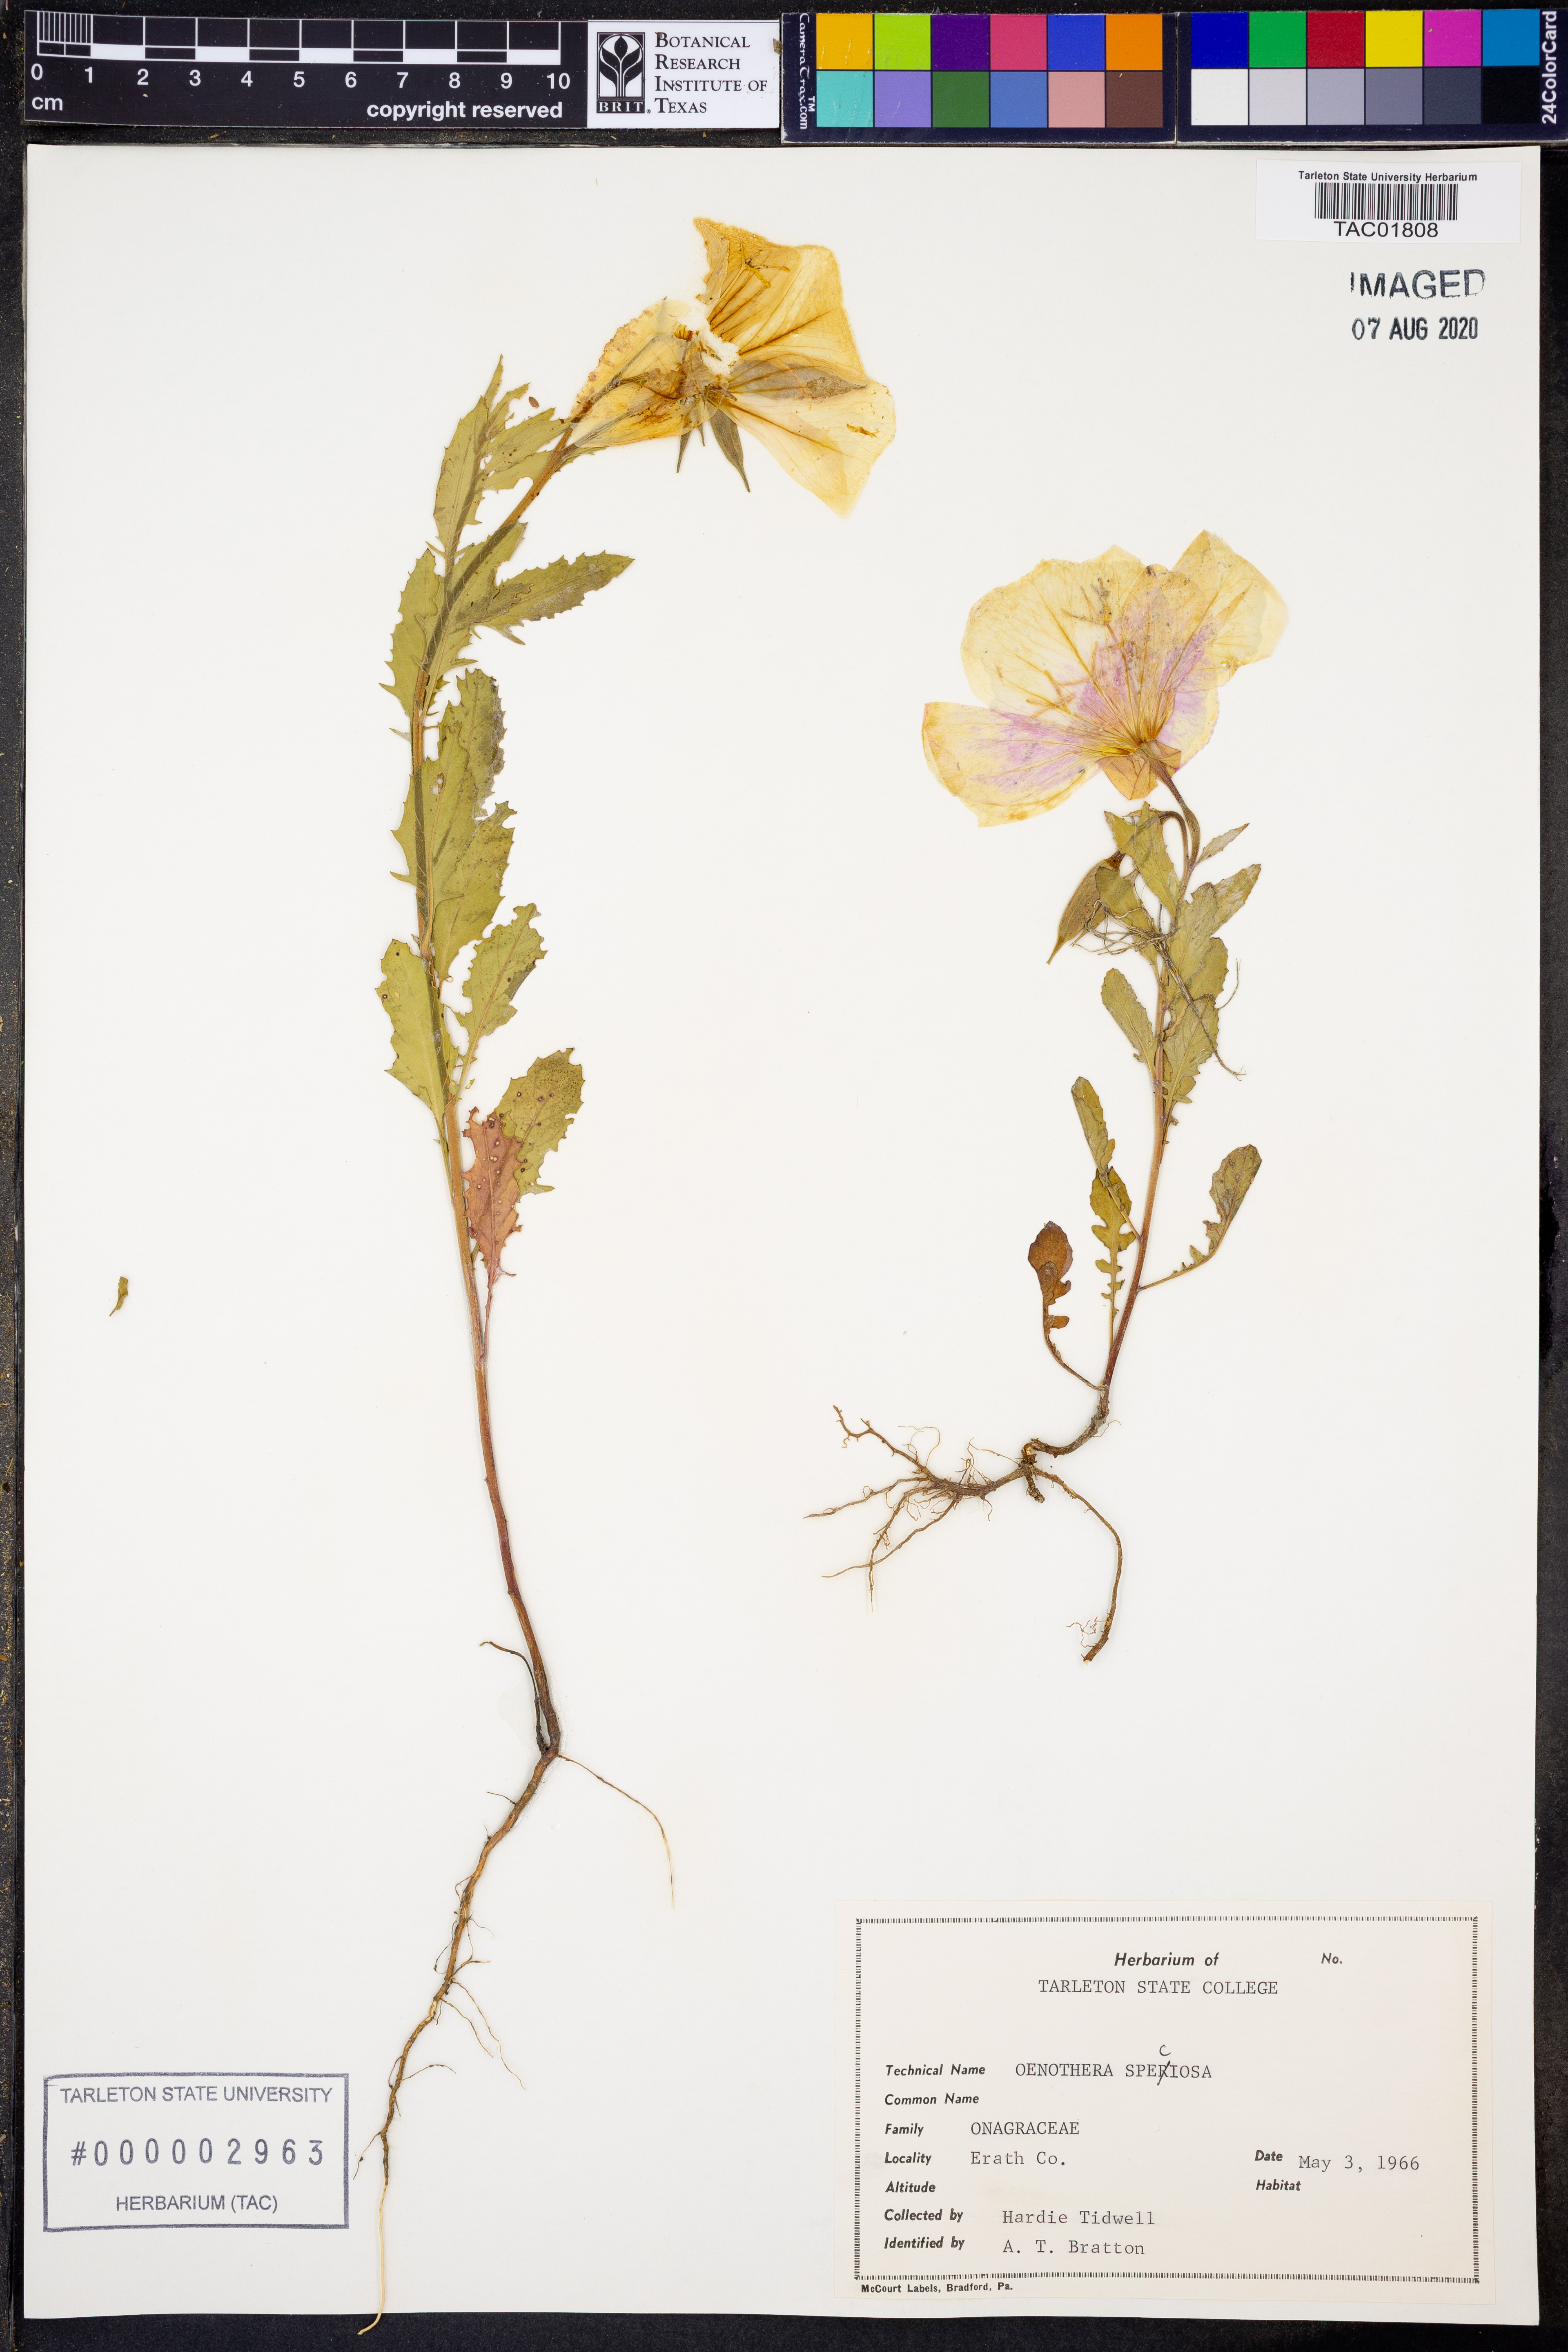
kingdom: Plantae
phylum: Tracheophyta
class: Magnoliopsida
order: Myrtales
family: Onagraceae
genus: Oenothera
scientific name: Oenothera speciosa
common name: White evening-primrose
